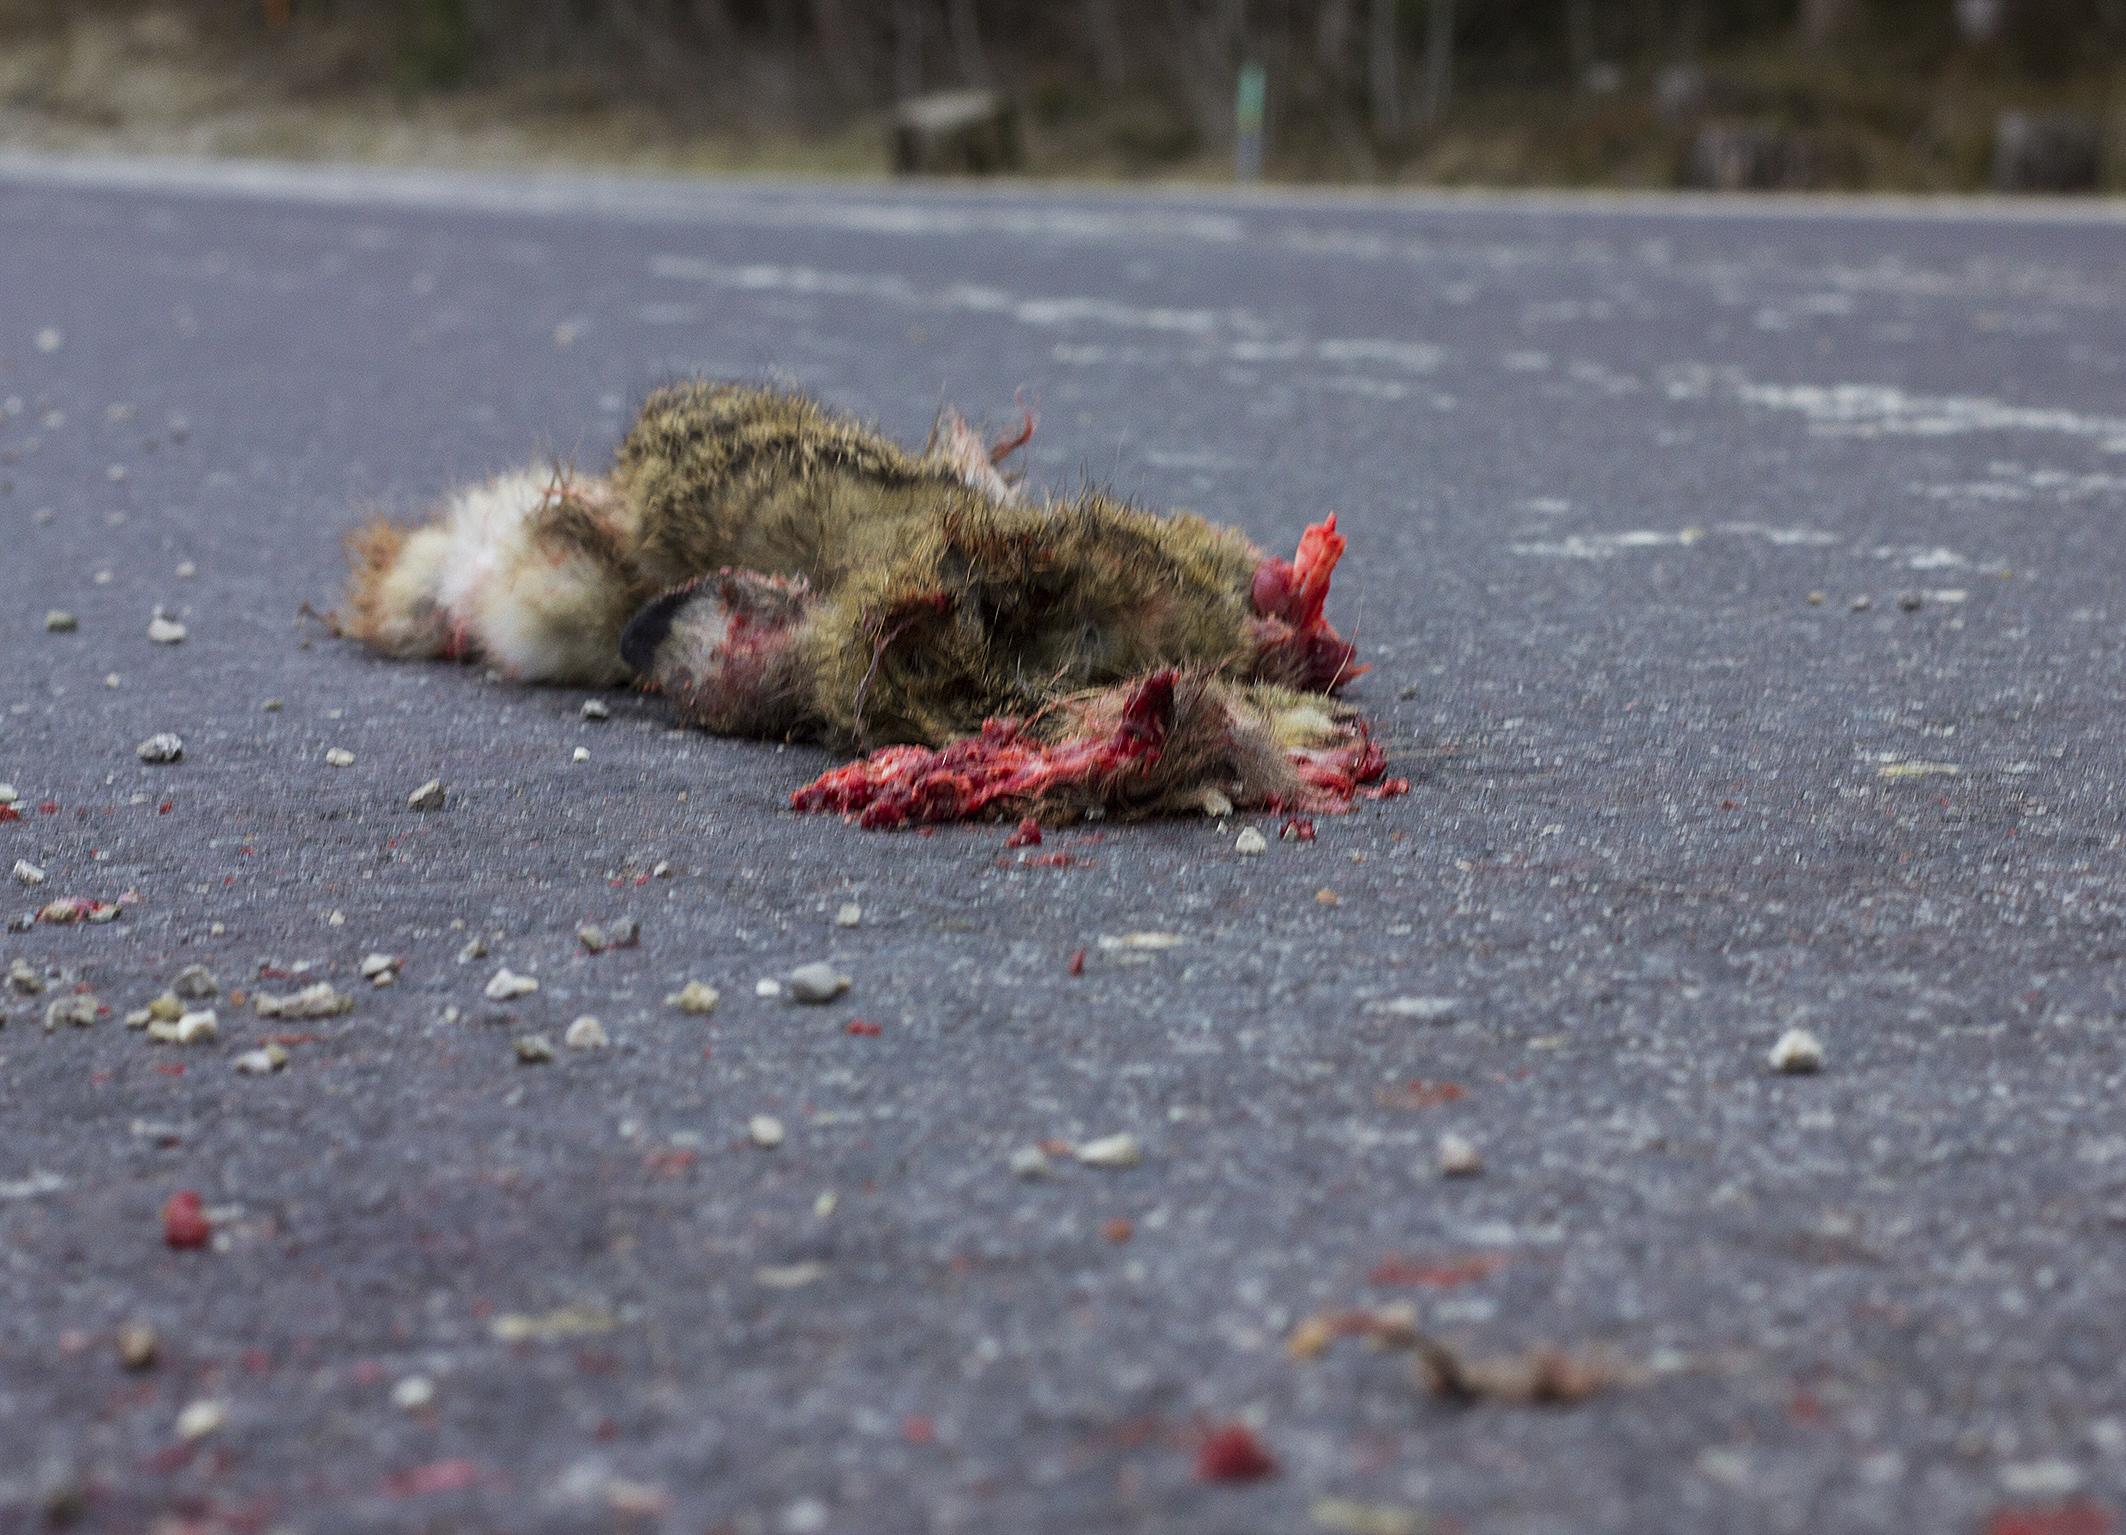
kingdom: Animalia
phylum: Chordata
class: Mammalia
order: Lagomorpha
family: Leporidae
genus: Lepus
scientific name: Lepus europaeus
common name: European hare
